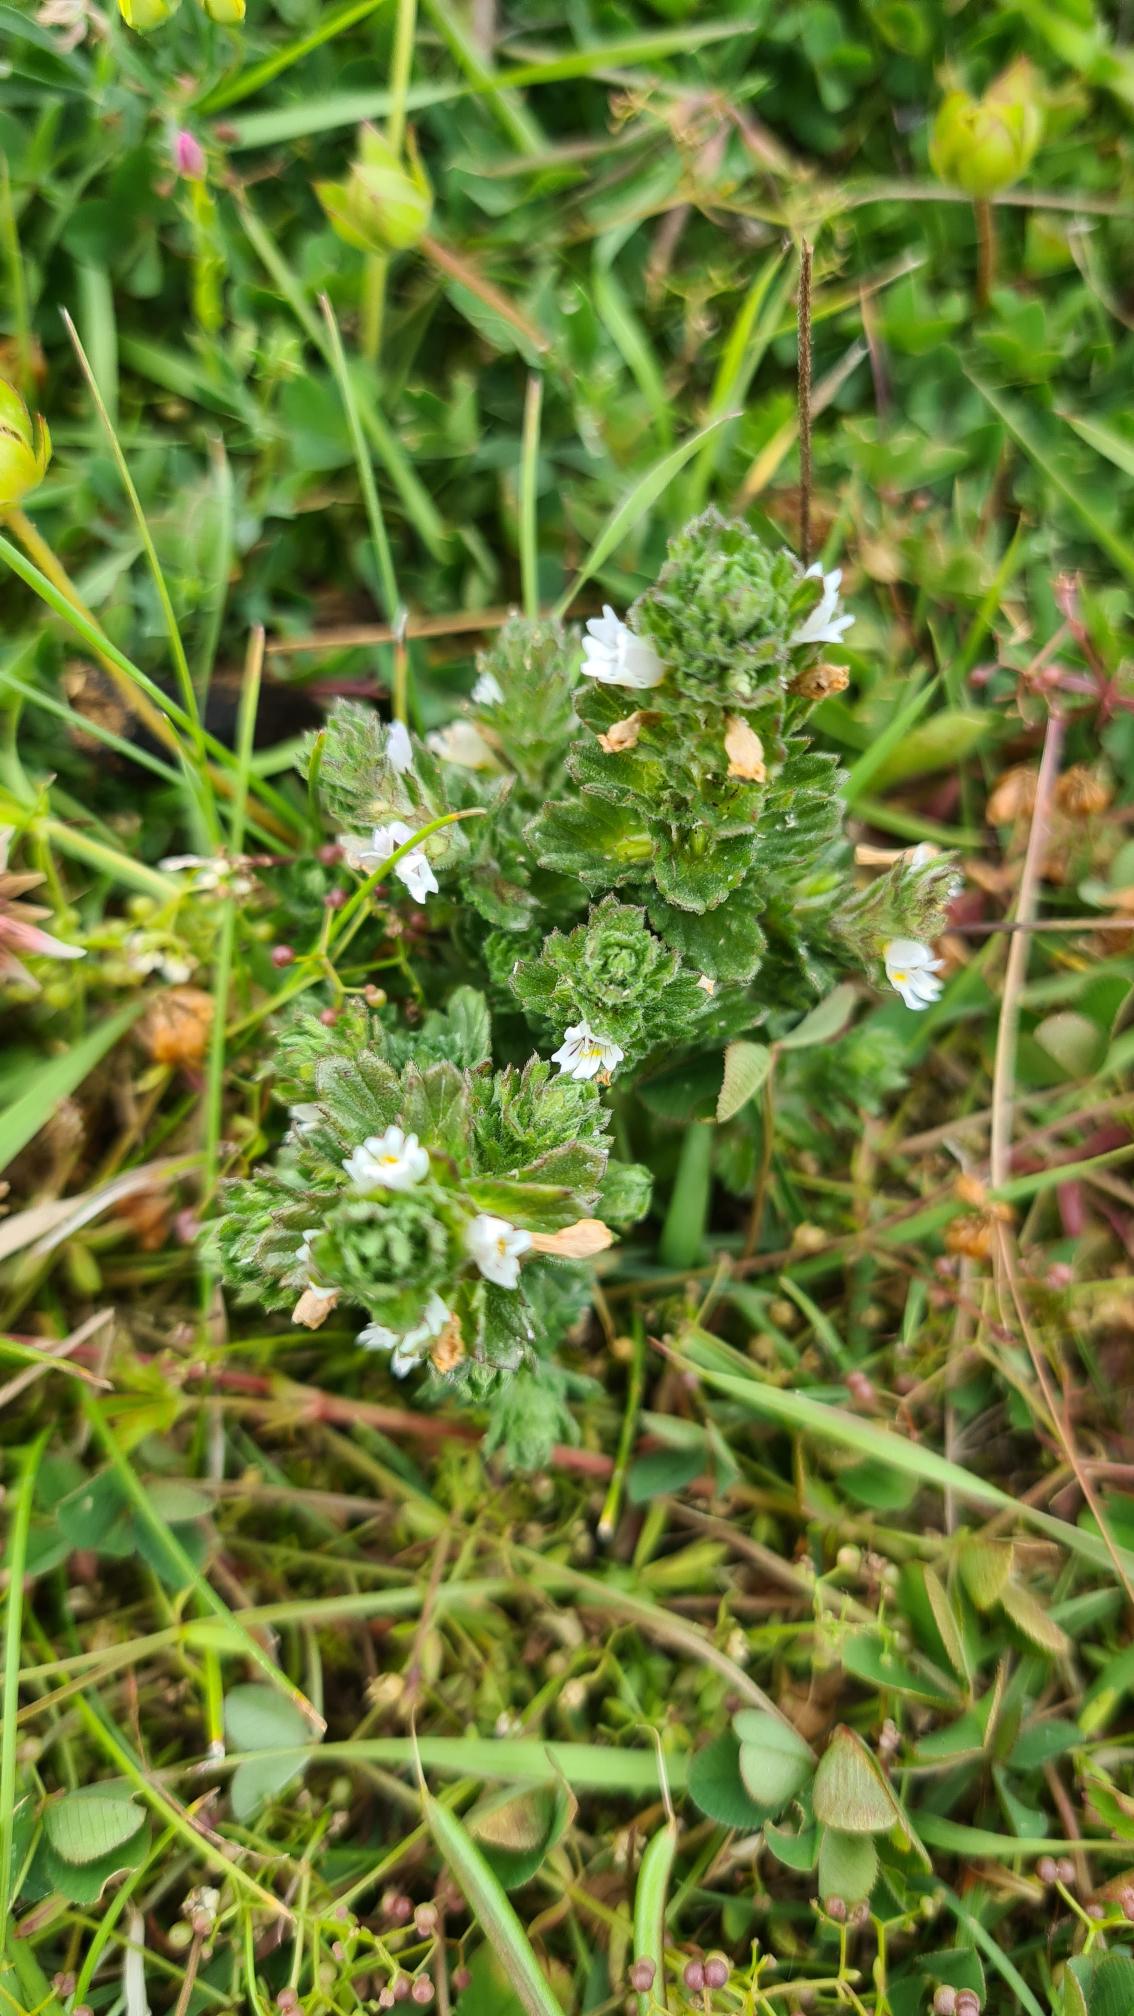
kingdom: Plantae
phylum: Tracheophyta
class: Magnoliopsida
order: Lamiales
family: Orobanchaceae
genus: Euphrasia
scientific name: Euphrasia nemorosa
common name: Kort øjentrøst
